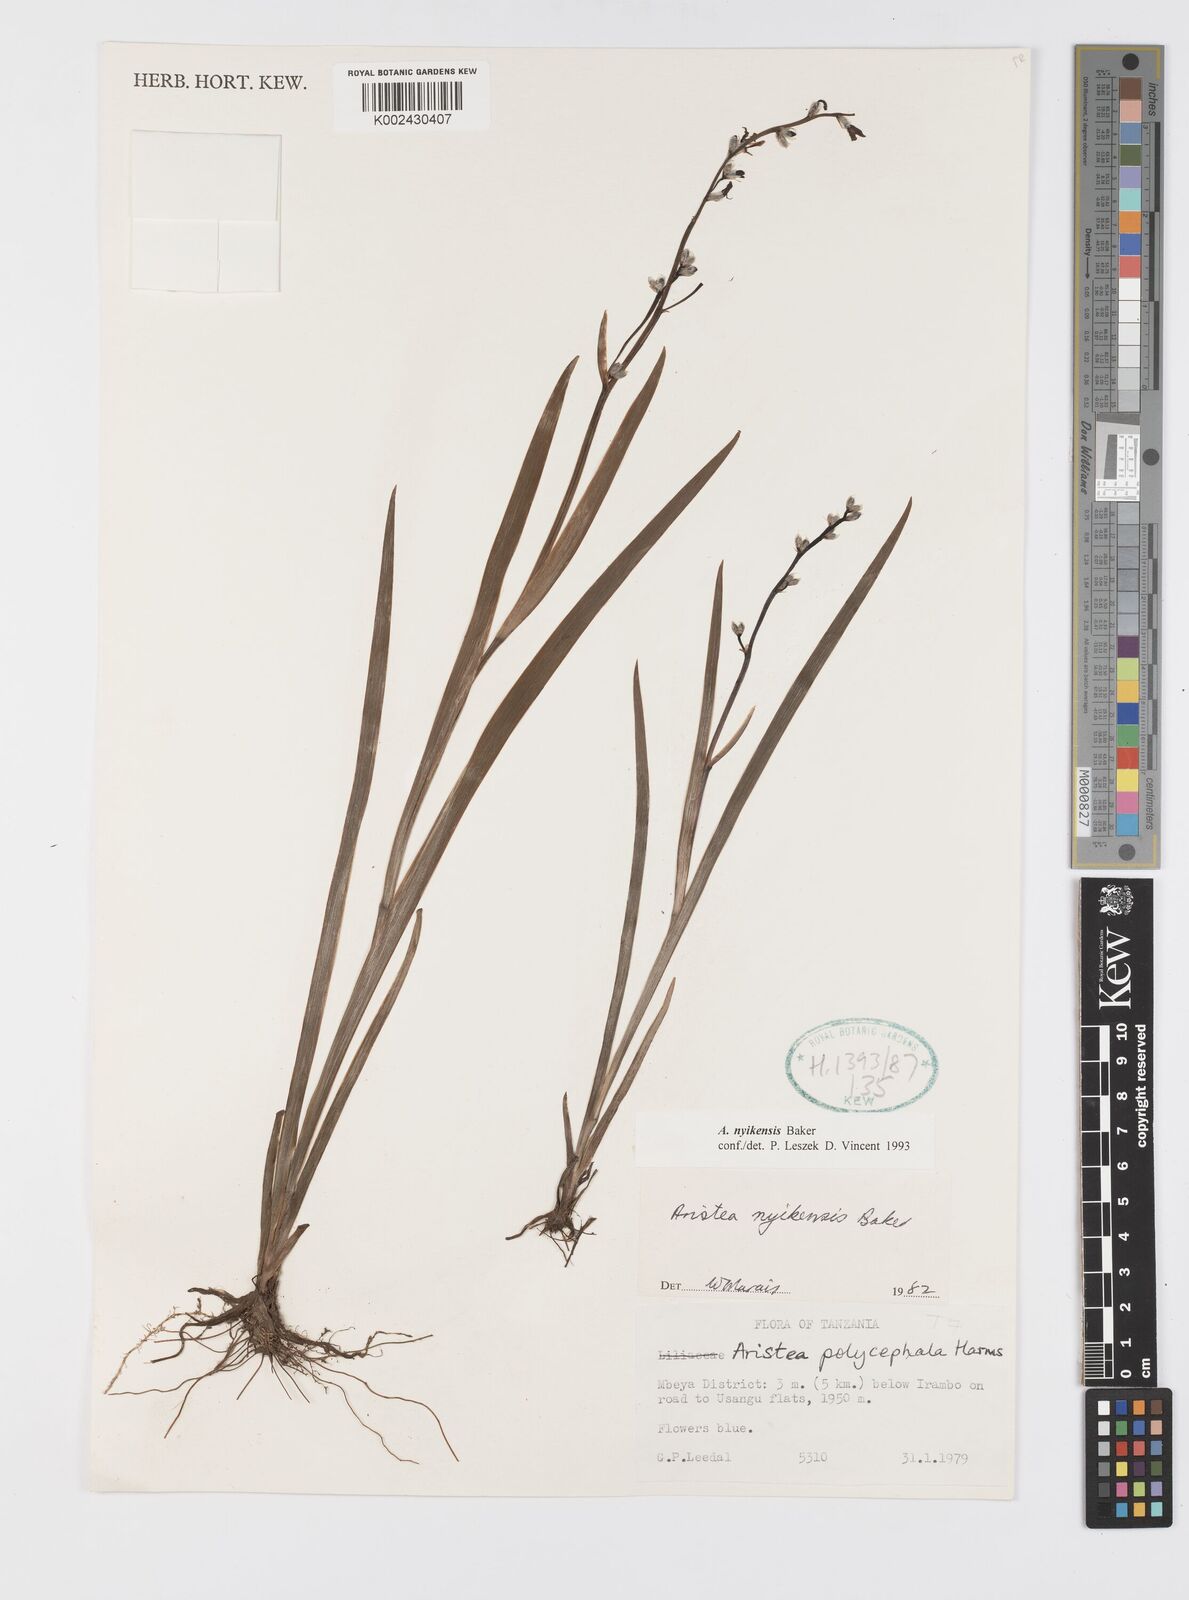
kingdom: Plantae
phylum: Tracheophyta
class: Liliopsida
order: Asparagales
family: Iridaceae
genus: Aristea
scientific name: Aristea nyikensis
